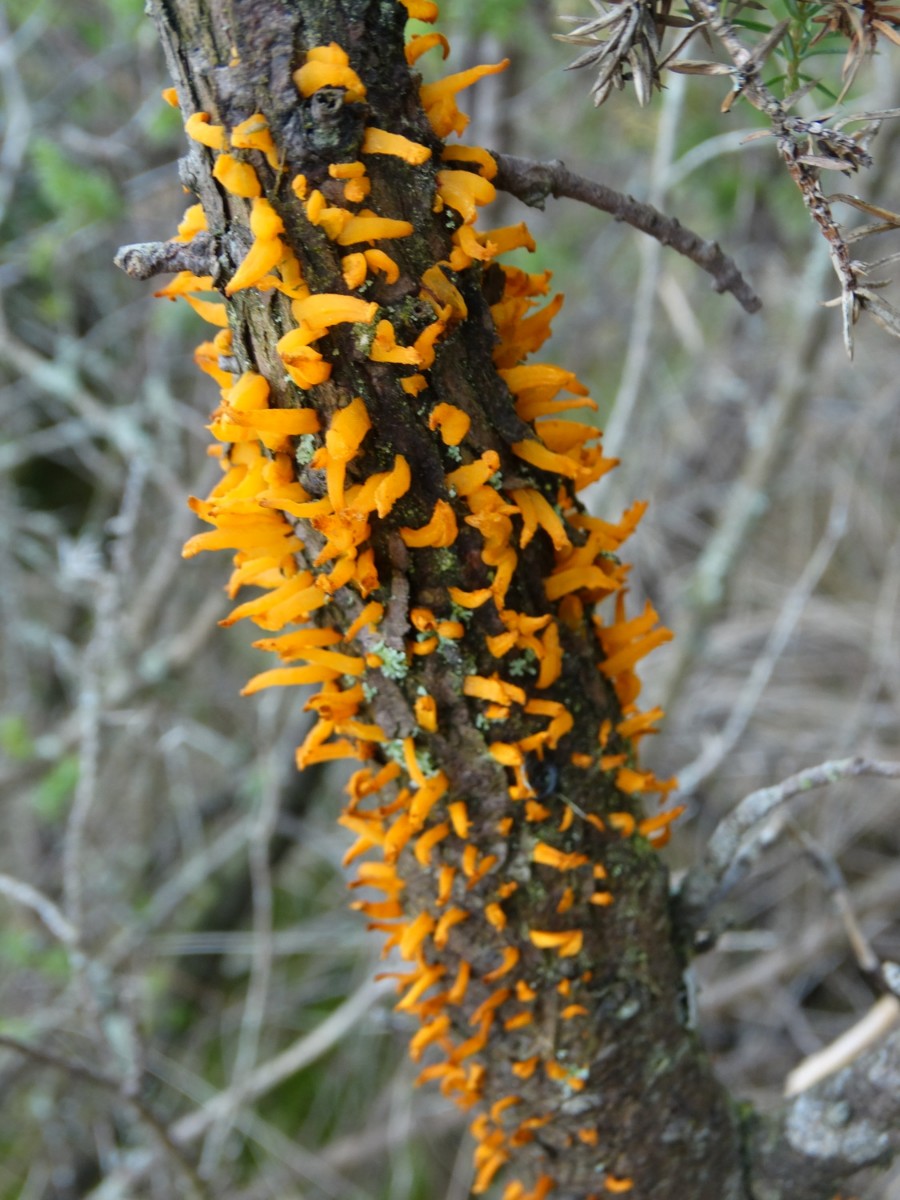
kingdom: Fungi
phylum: Basidiomycota
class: Pucciniomycetes
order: Pucciniales
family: Gymnosporangiaceae
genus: Gymnosporangium
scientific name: Gymnosporangium clavariiforme
